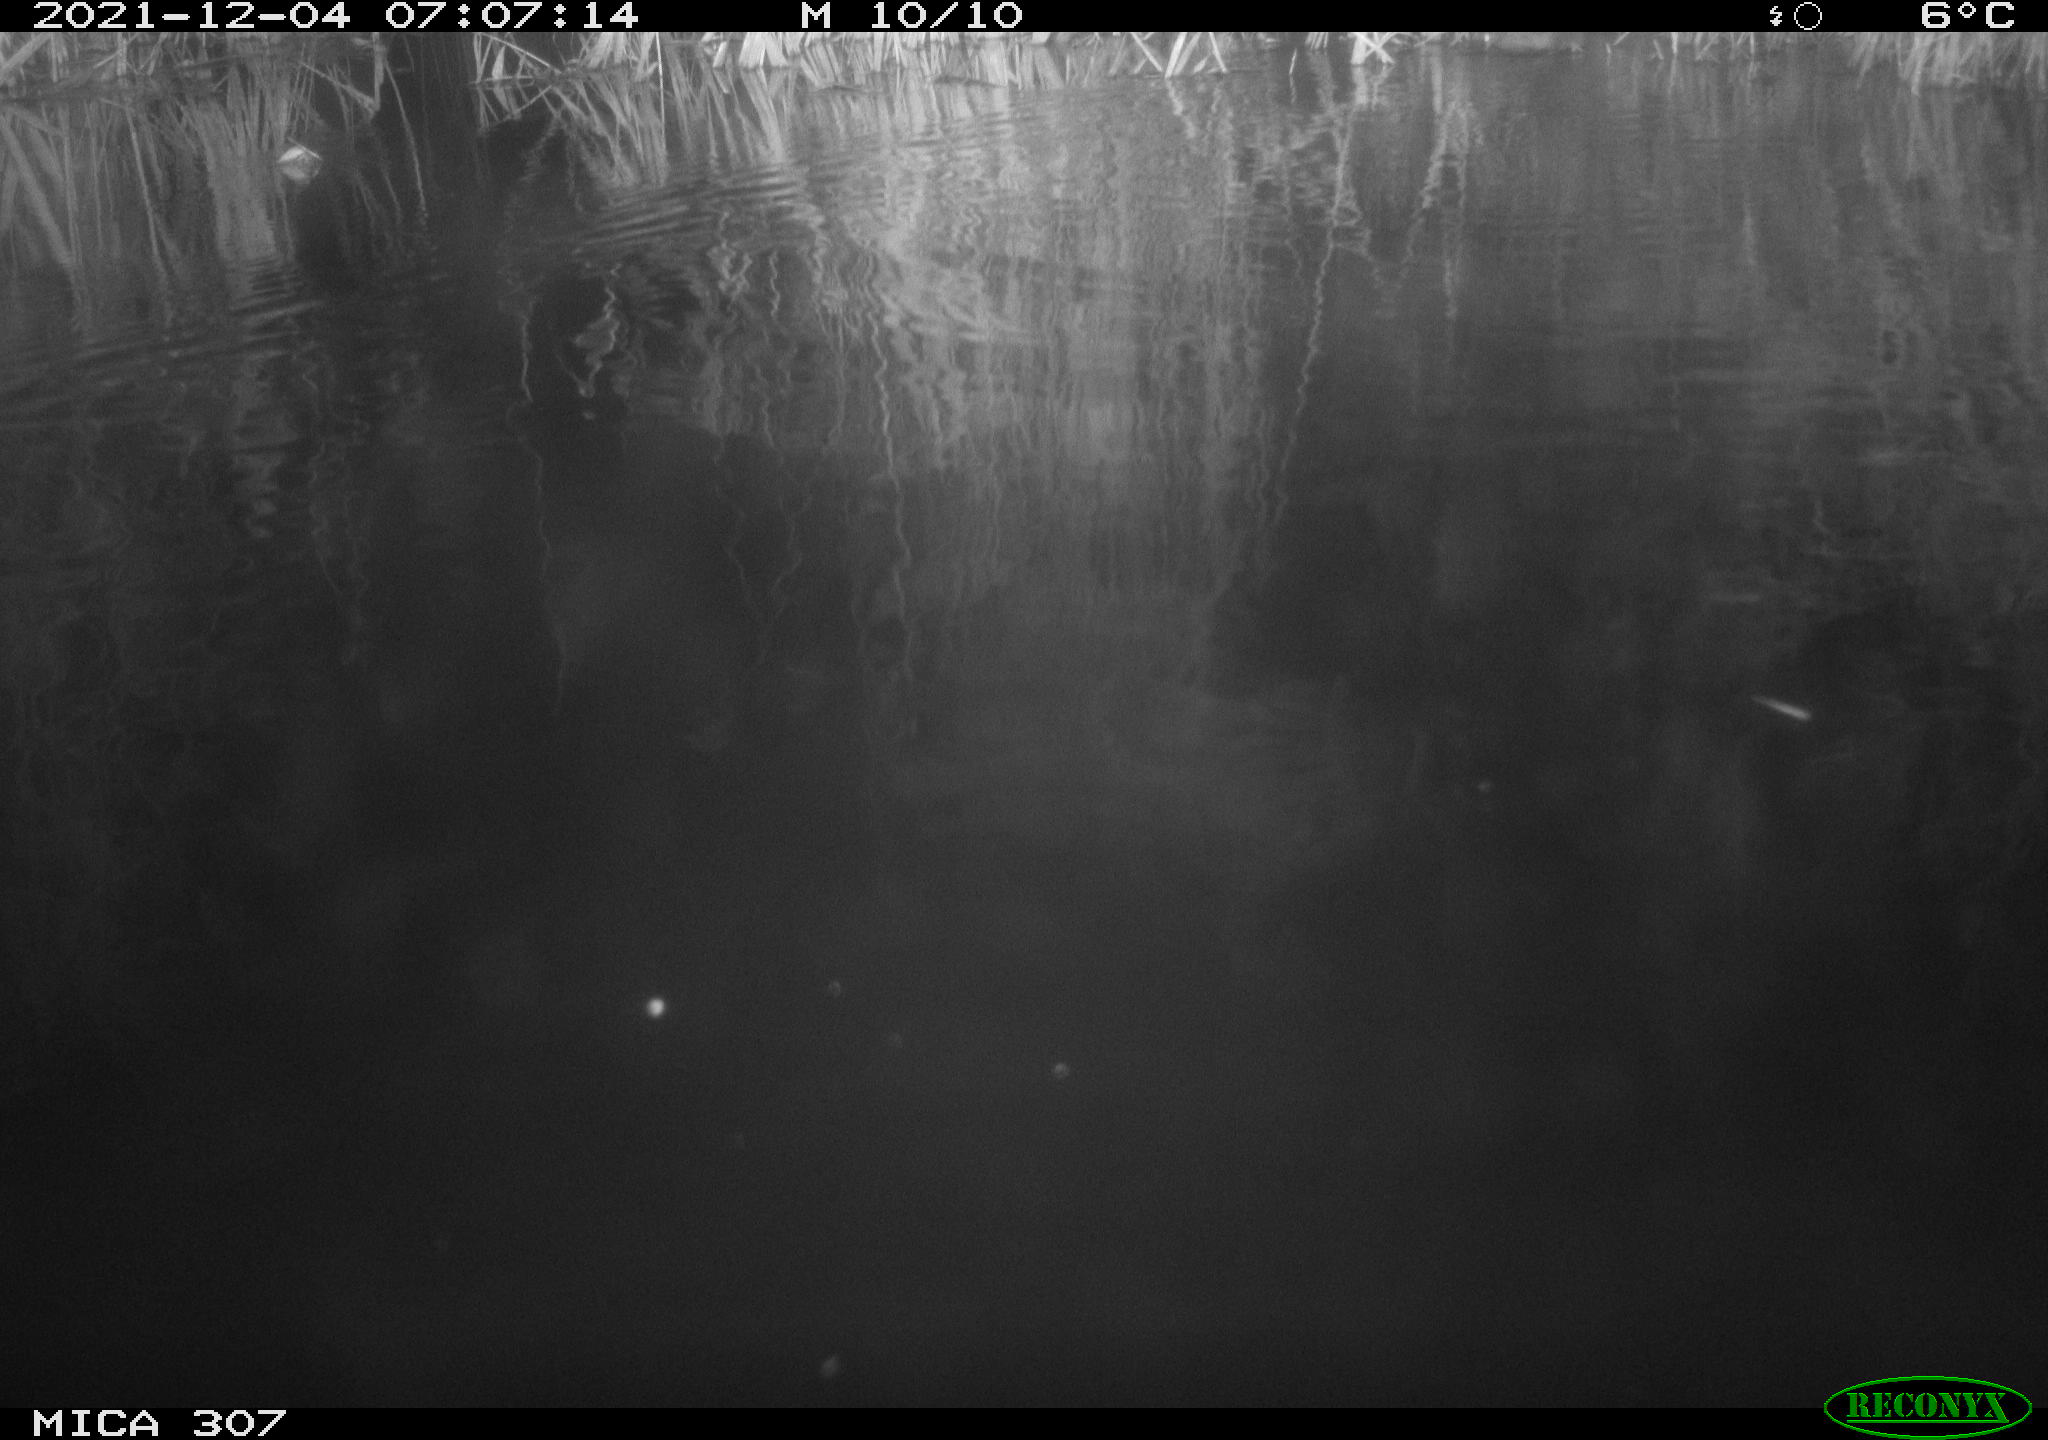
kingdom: Animalia
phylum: Chordata
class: Mammalia
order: Rodentia
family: Cricetidae
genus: Ondatra
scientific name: Ondatra zibethicus
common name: Muskrat
